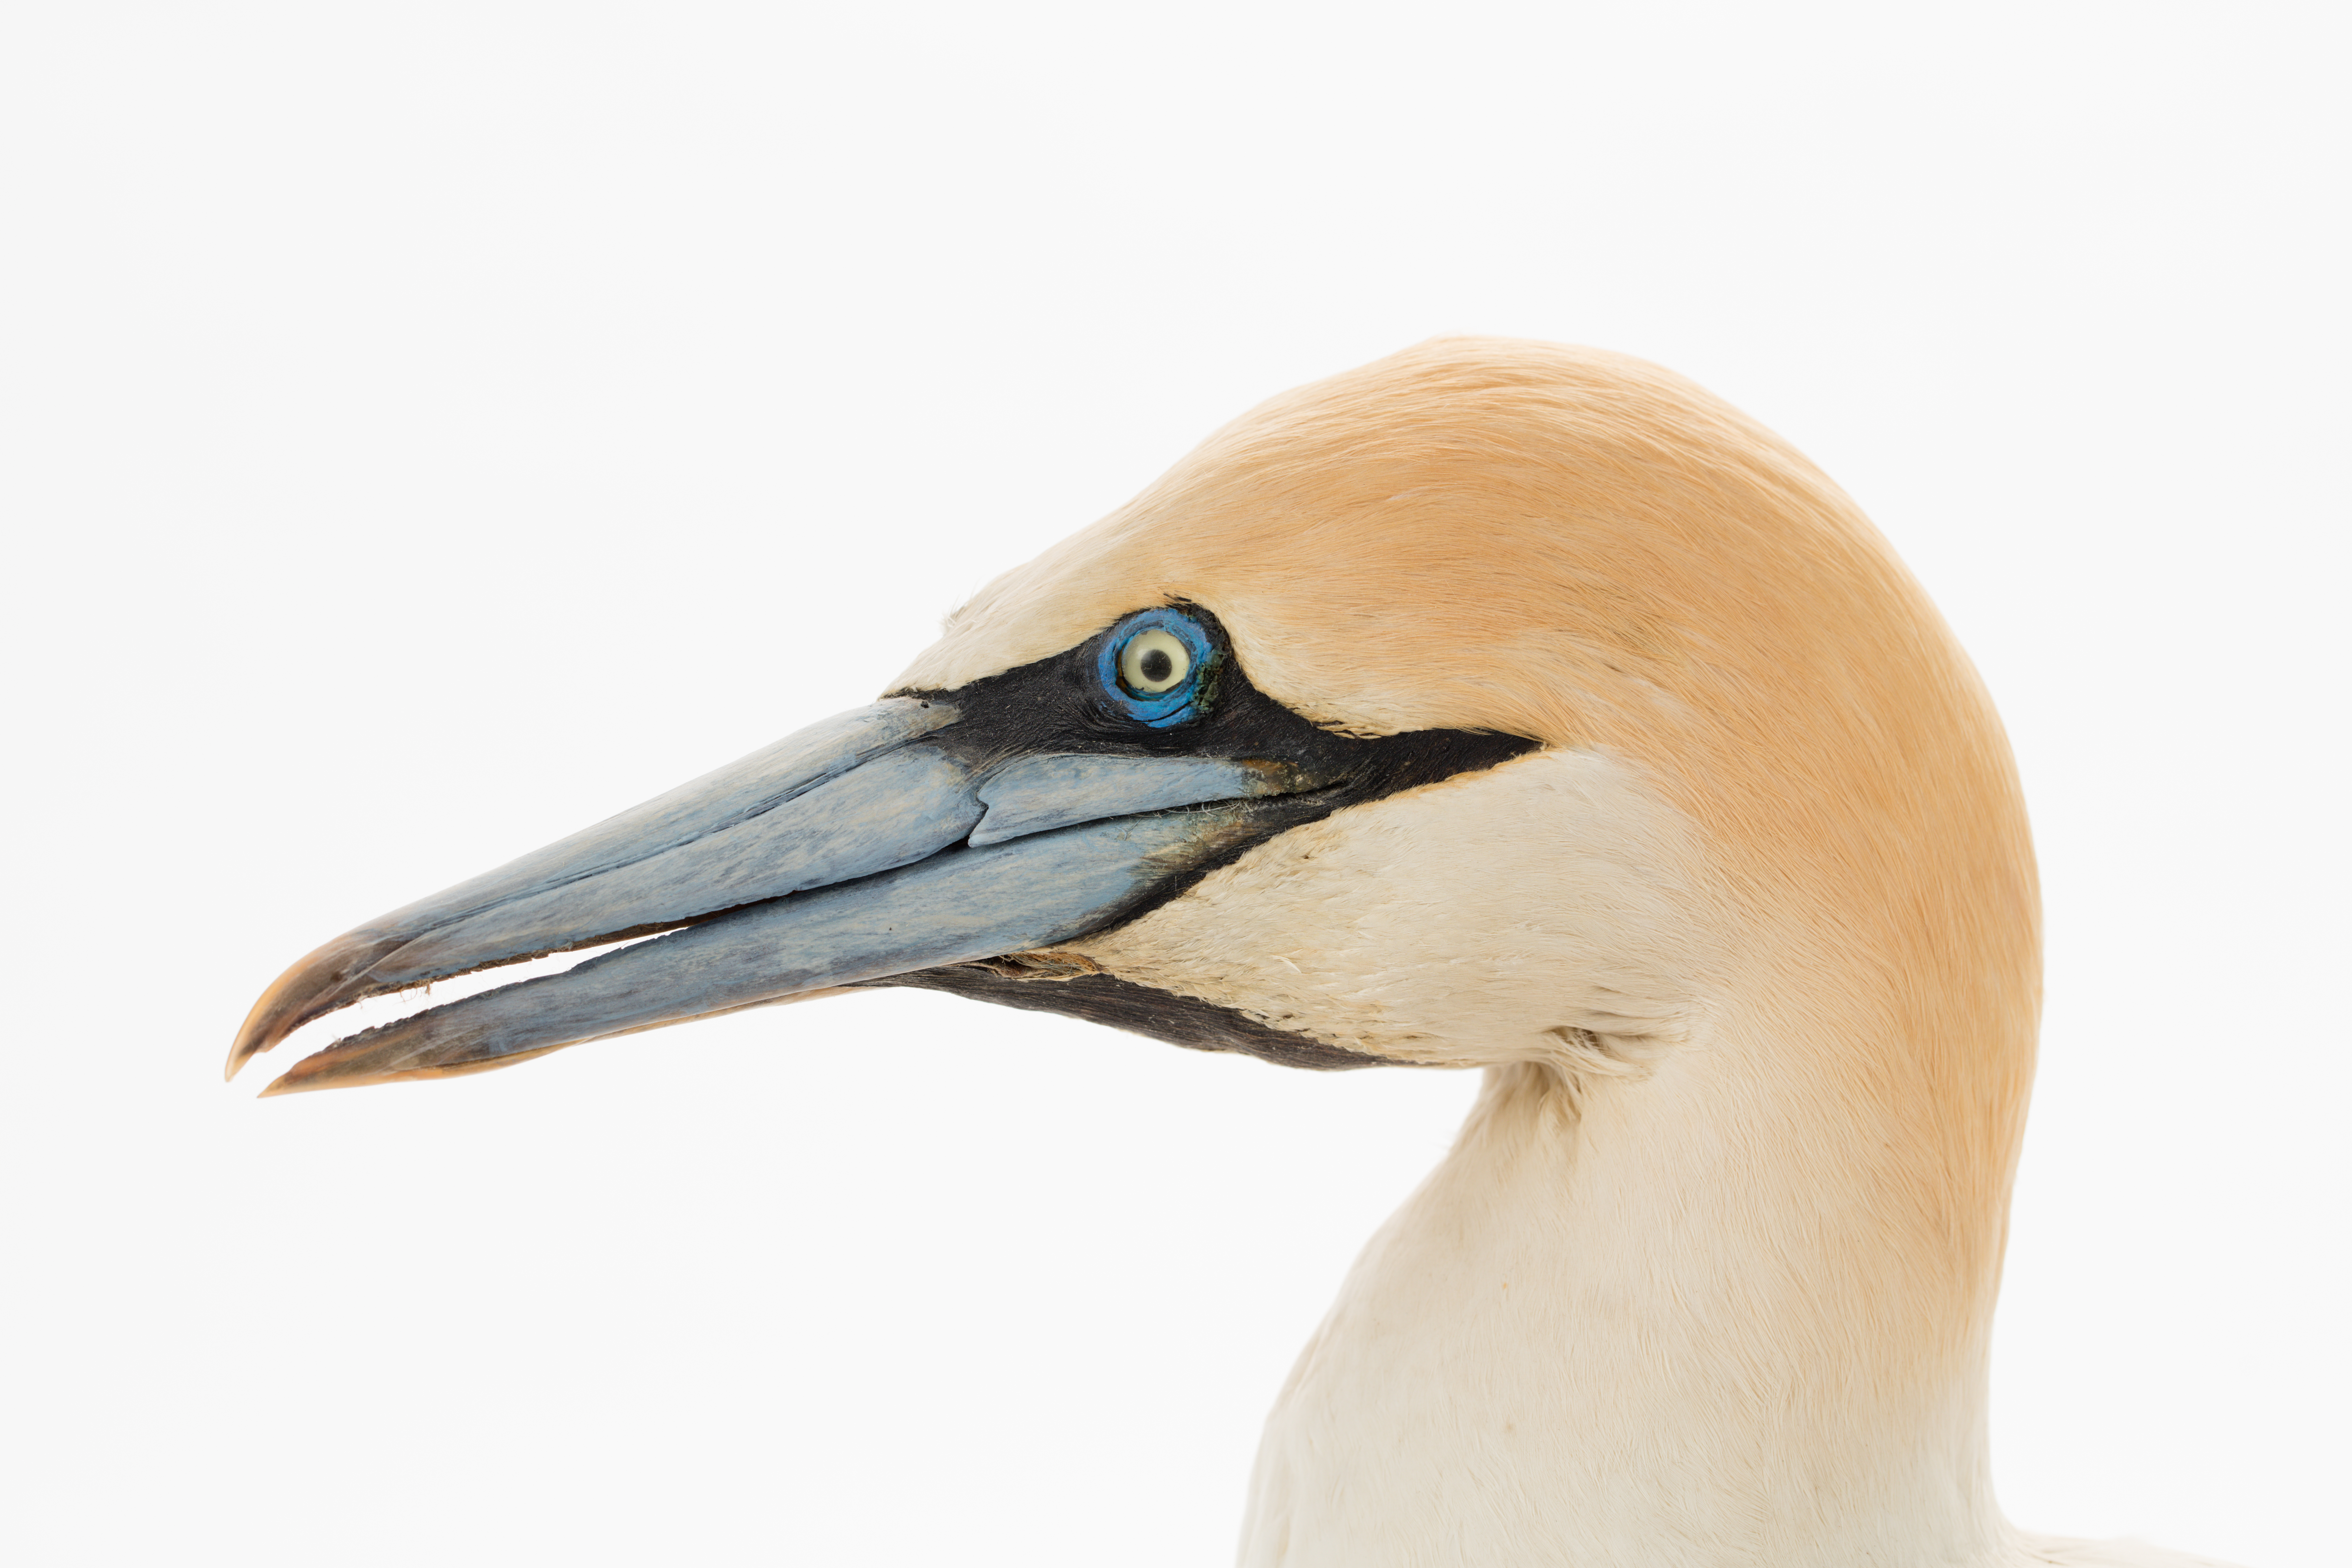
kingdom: Animalia
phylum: Chordata
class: Aves
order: Suliformes
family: Sulidae
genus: Morus
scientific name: Morus serrator
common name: Australasian gannet
